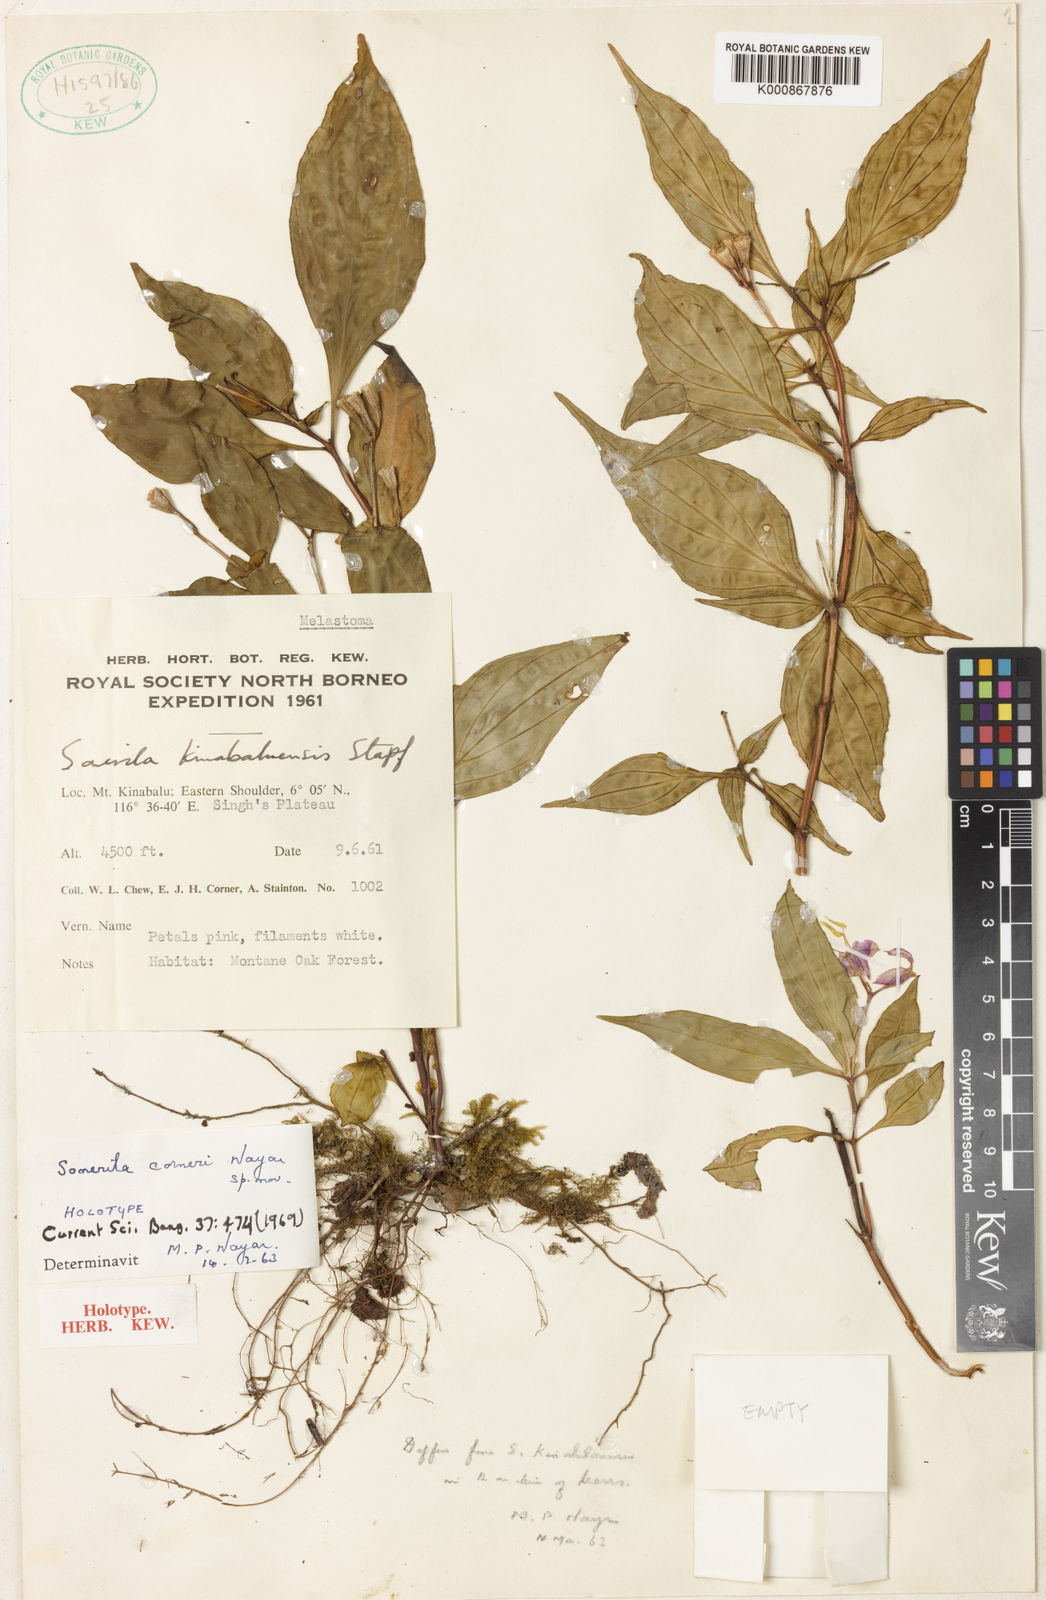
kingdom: Plantae
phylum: Tracheophyta
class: Magnoliopsida
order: Myrtales
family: Melastomataceae
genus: Sonerila
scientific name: Sonerila corneri
